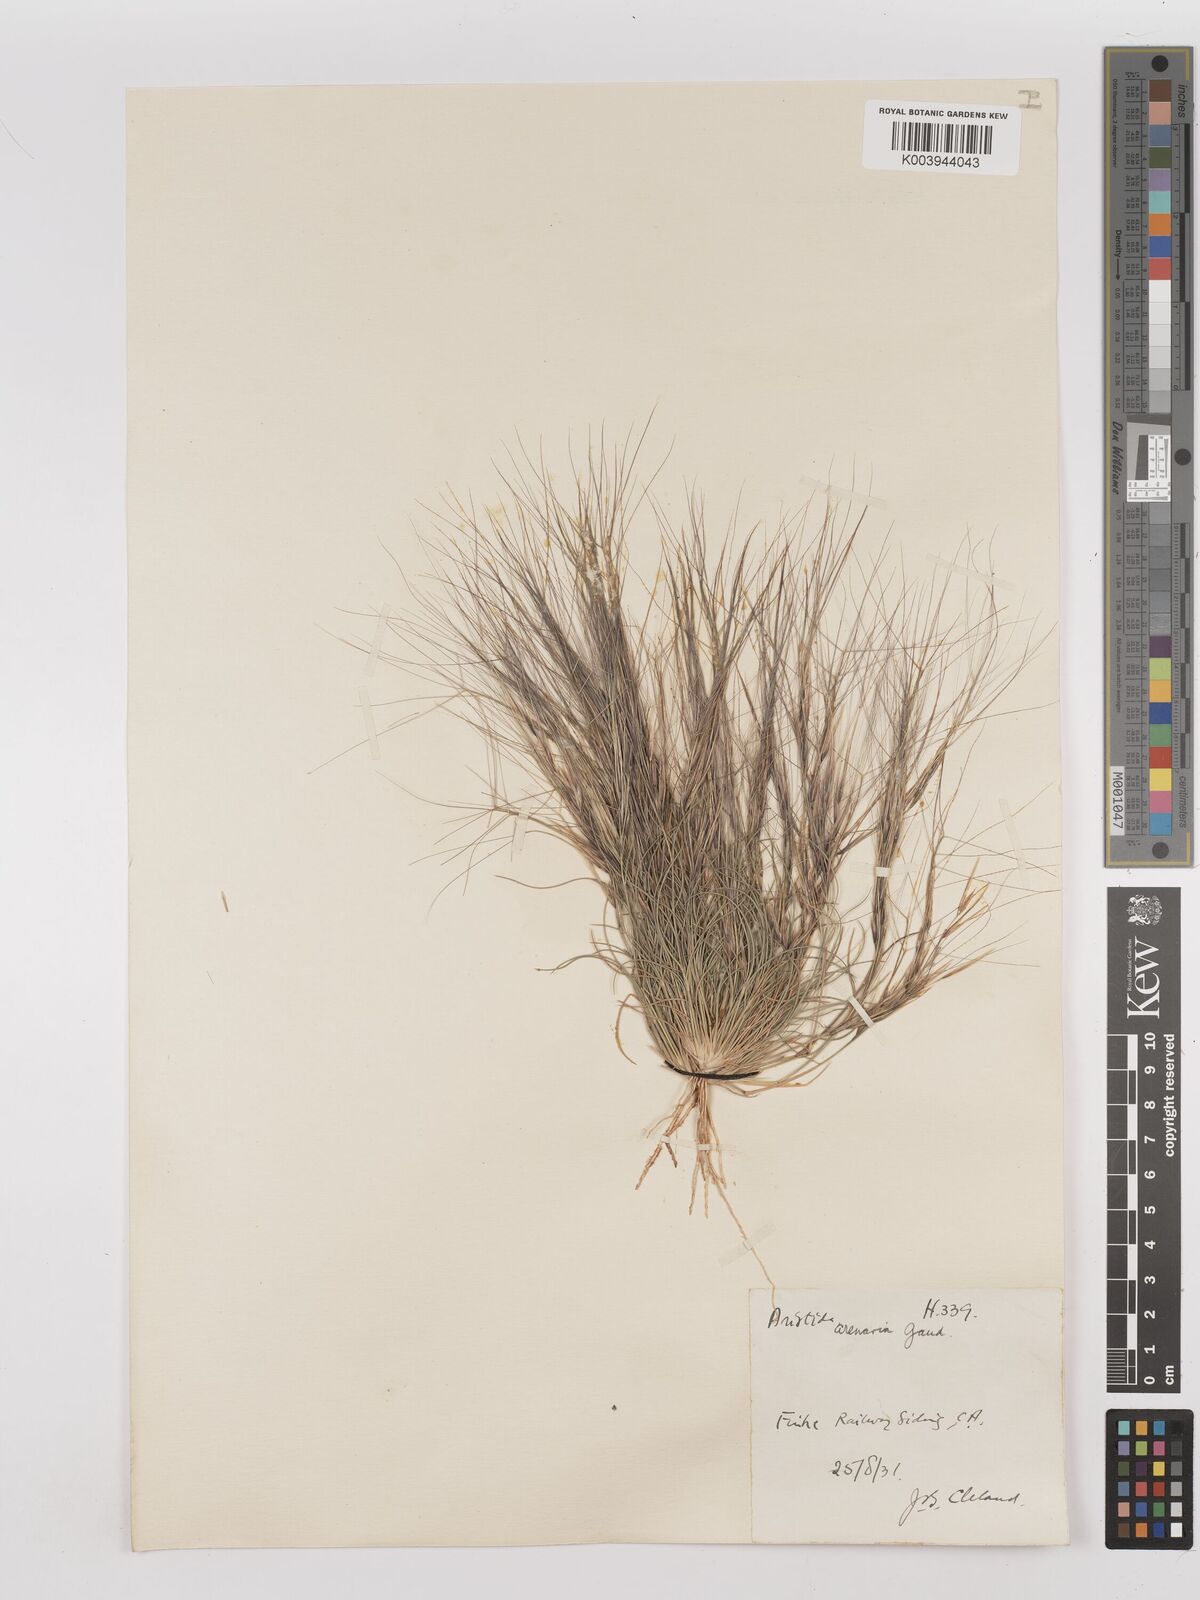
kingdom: Plantae
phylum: Tracheophyta
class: Liliopsida
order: Poales
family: Poaceae
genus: Aristida
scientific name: Aristida contorta
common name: Bunch kerosene grass
